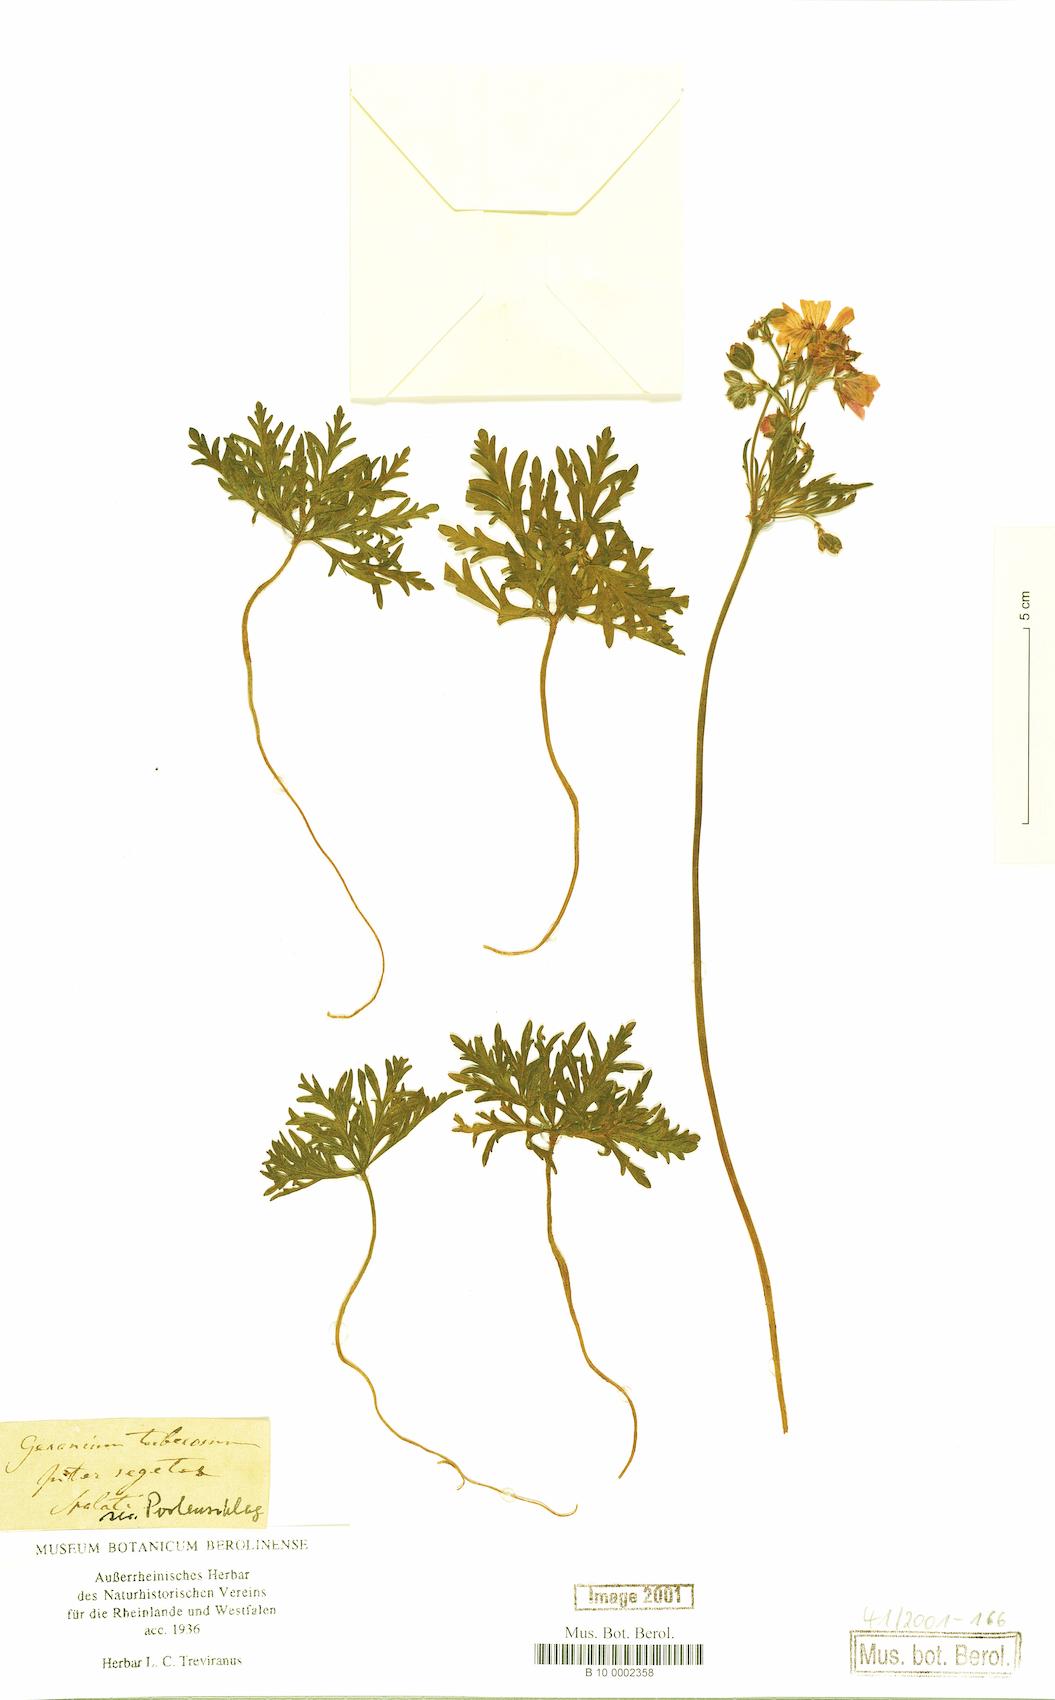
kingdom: Plantae
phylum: Tracheophyta
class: Magnoliopsida
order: Geraniales
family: Geraniaceae
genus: Geranium
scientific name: Geranium tuberosum
